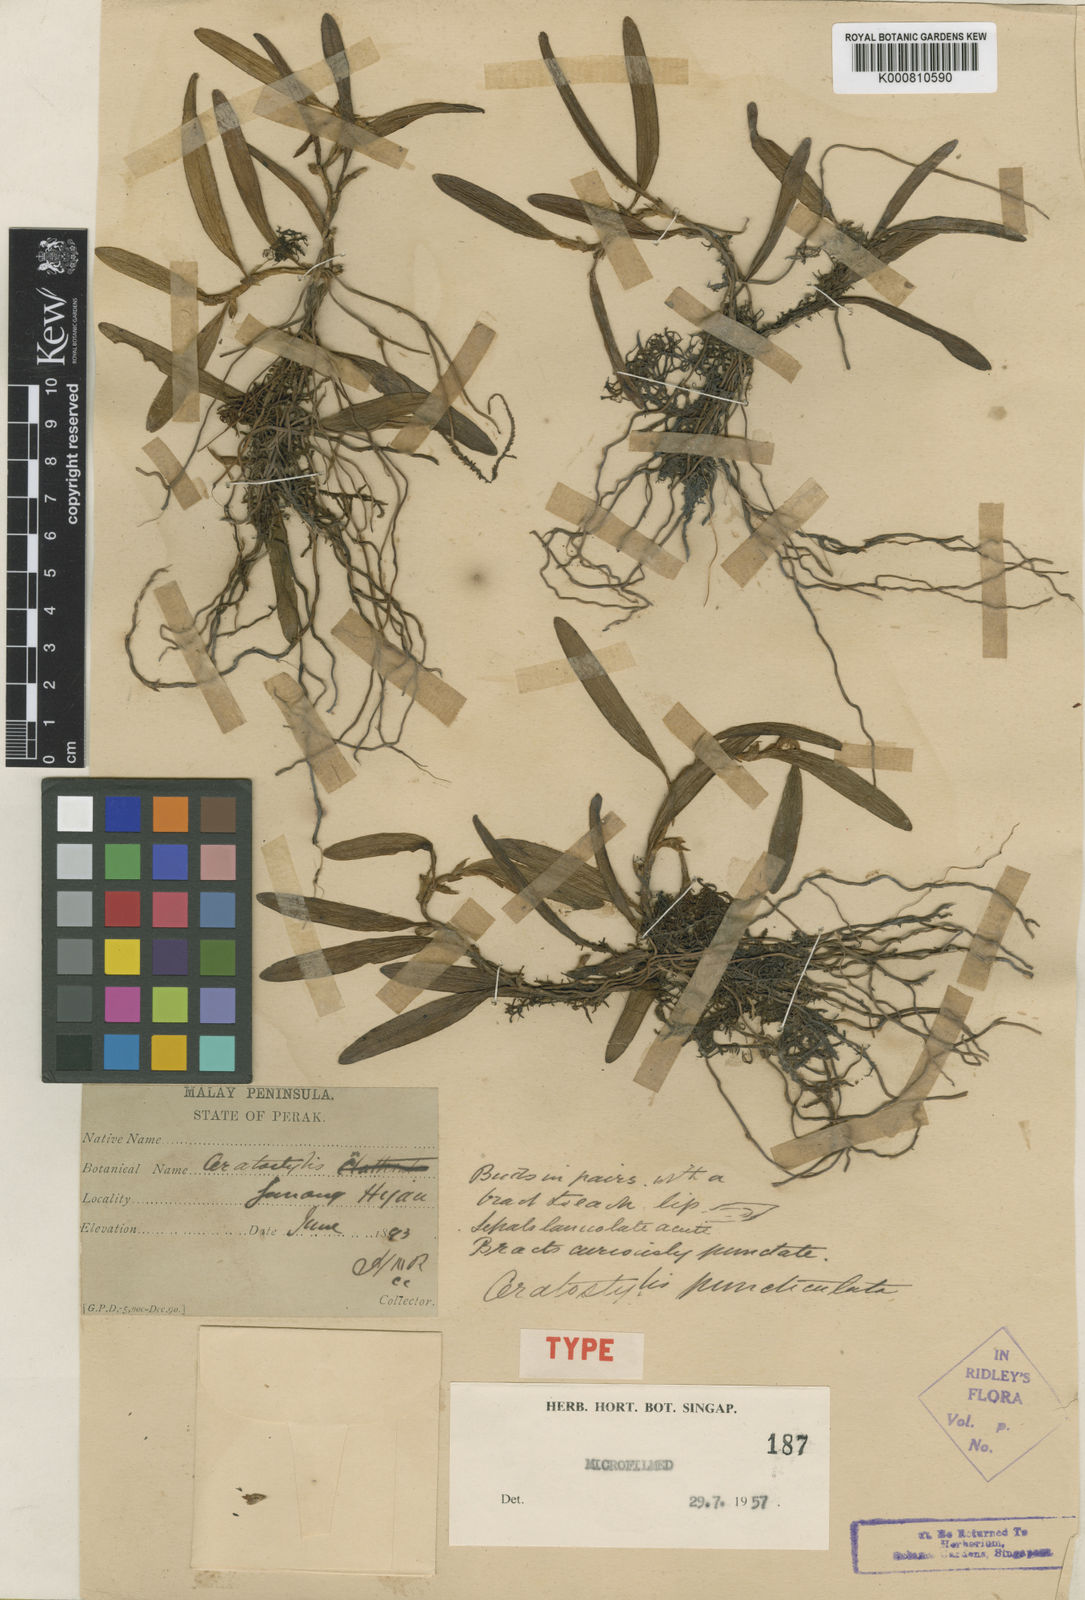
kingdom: Plantae
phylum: Tracheophyta
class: Liliopsida
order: Asparagales
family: Orchidaceae
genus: Ceratostylis
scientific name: Ceratostylis puncticulata
